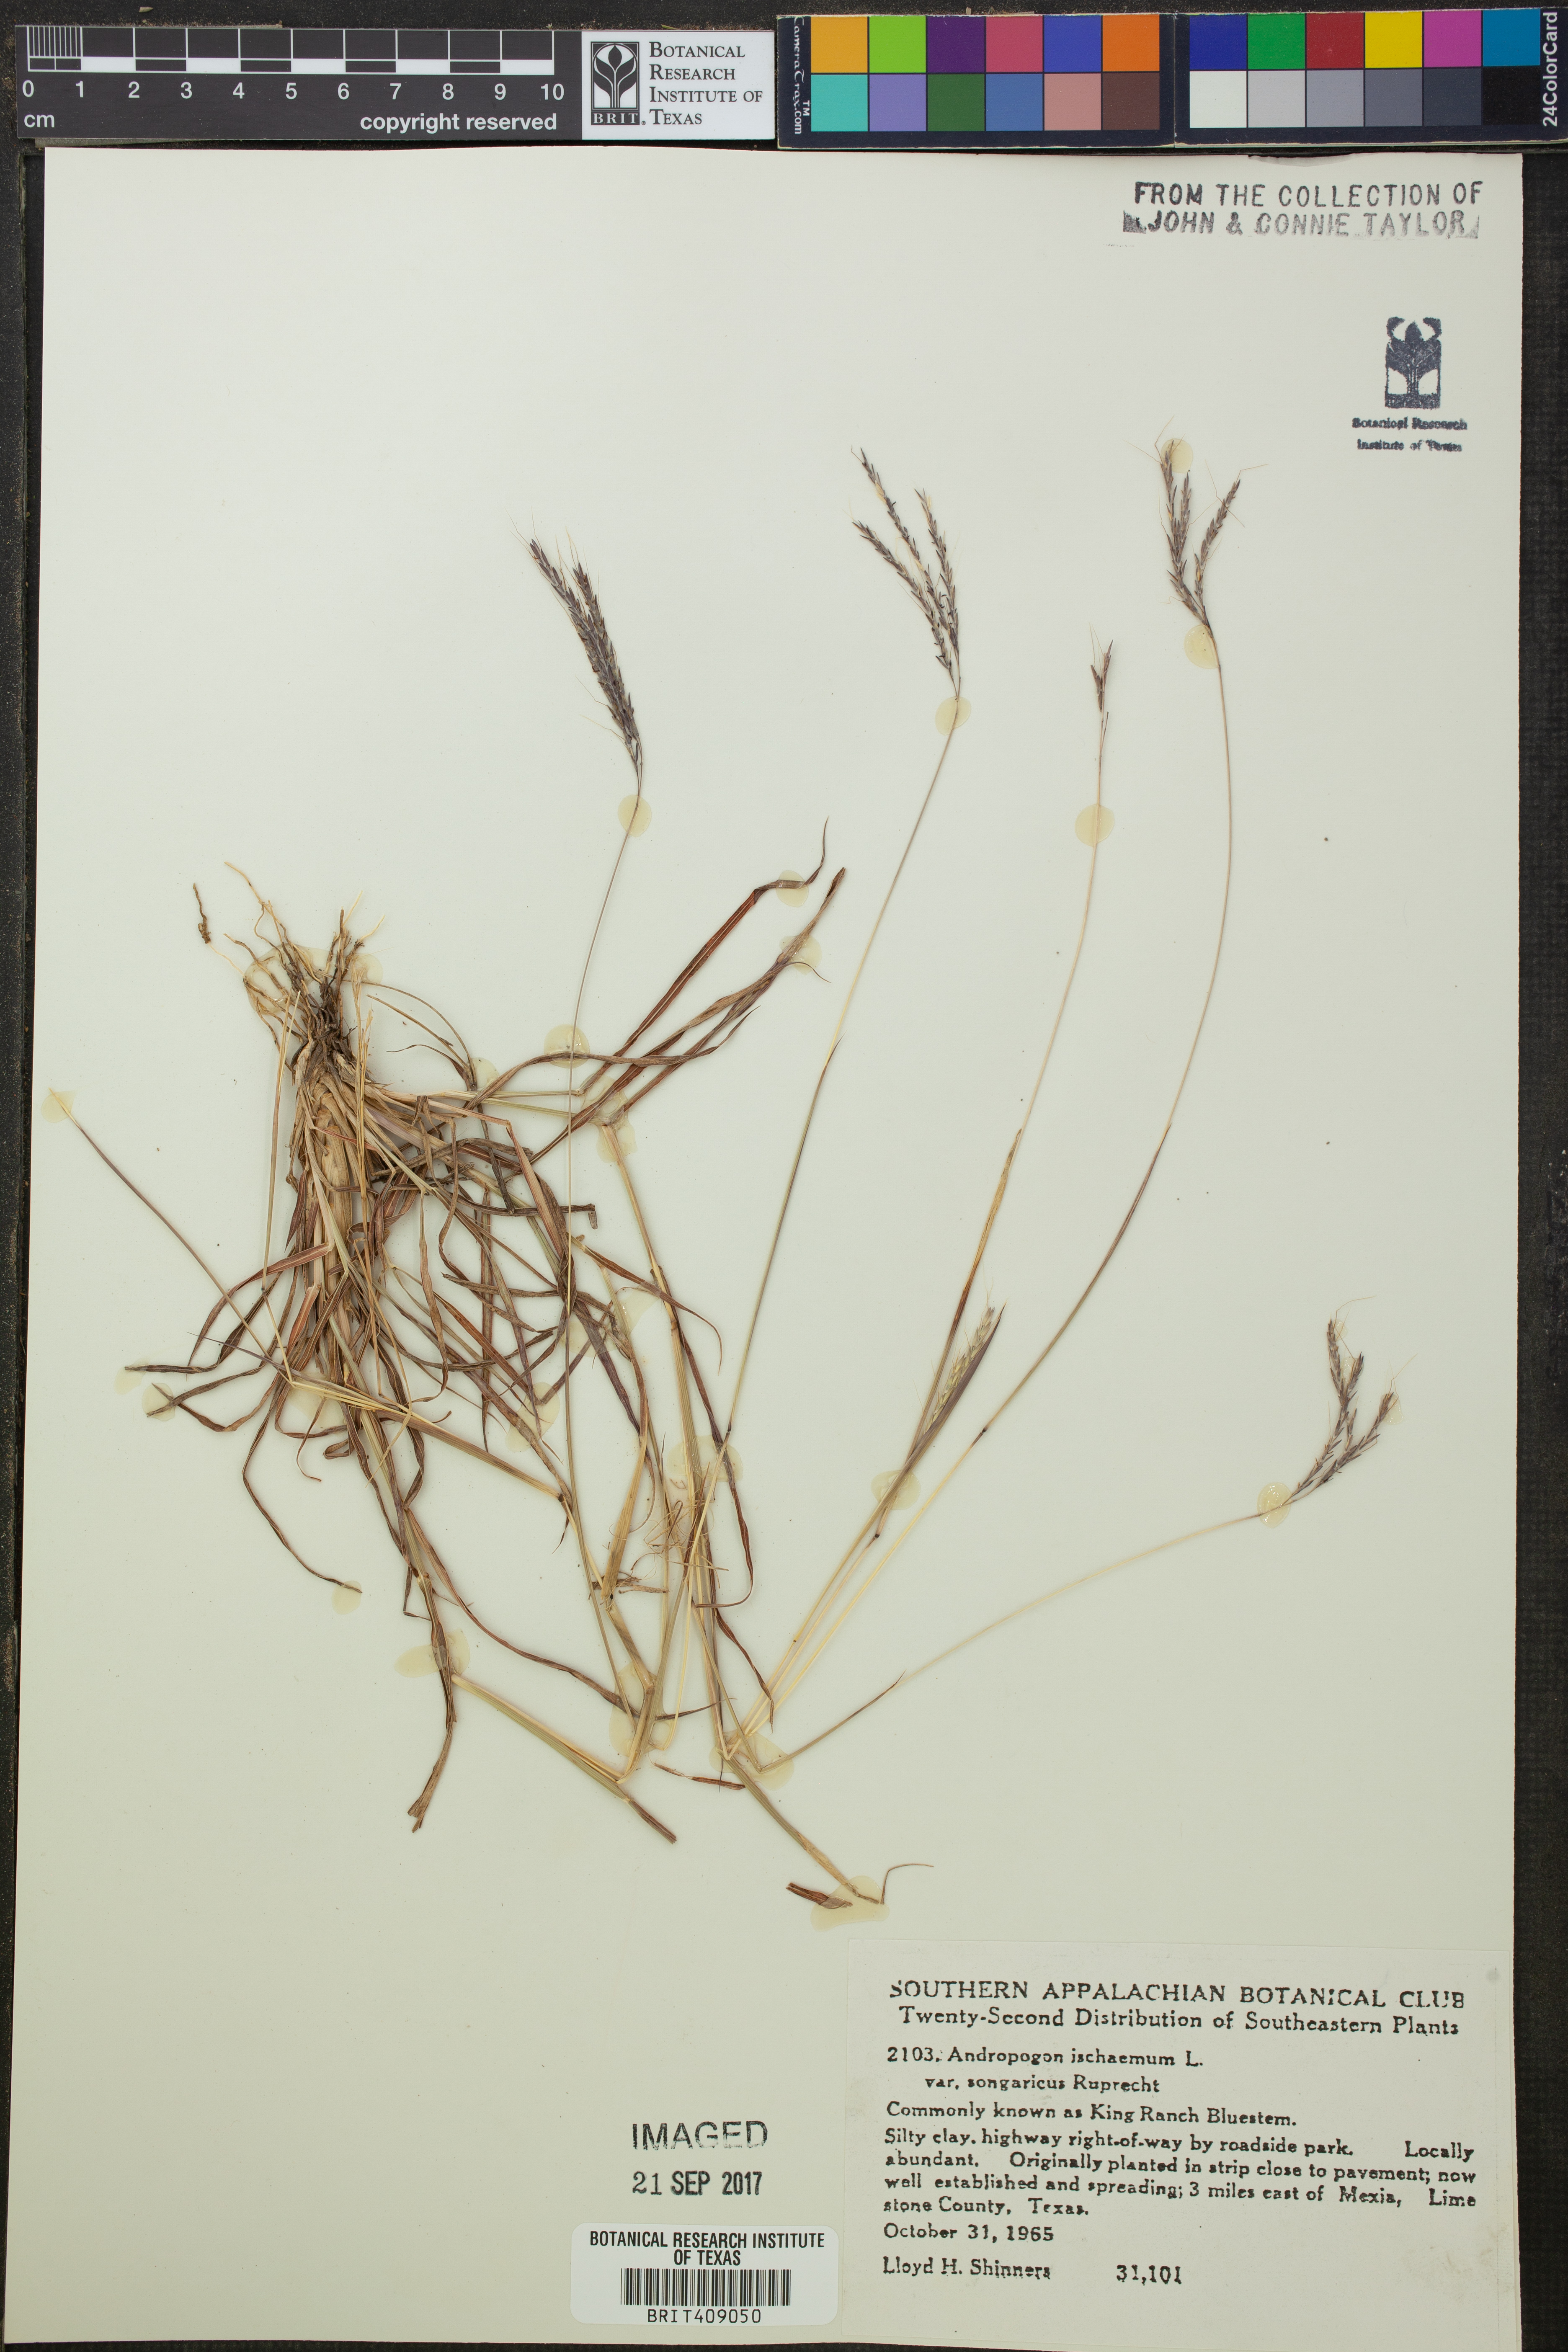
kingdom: Plantae
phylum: Tracheophyta
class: Liliopsida
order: Poales
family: Poaceae
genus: Bothriochloa
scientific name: Bothriochloa ischaemum
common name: Yellow bluestem
